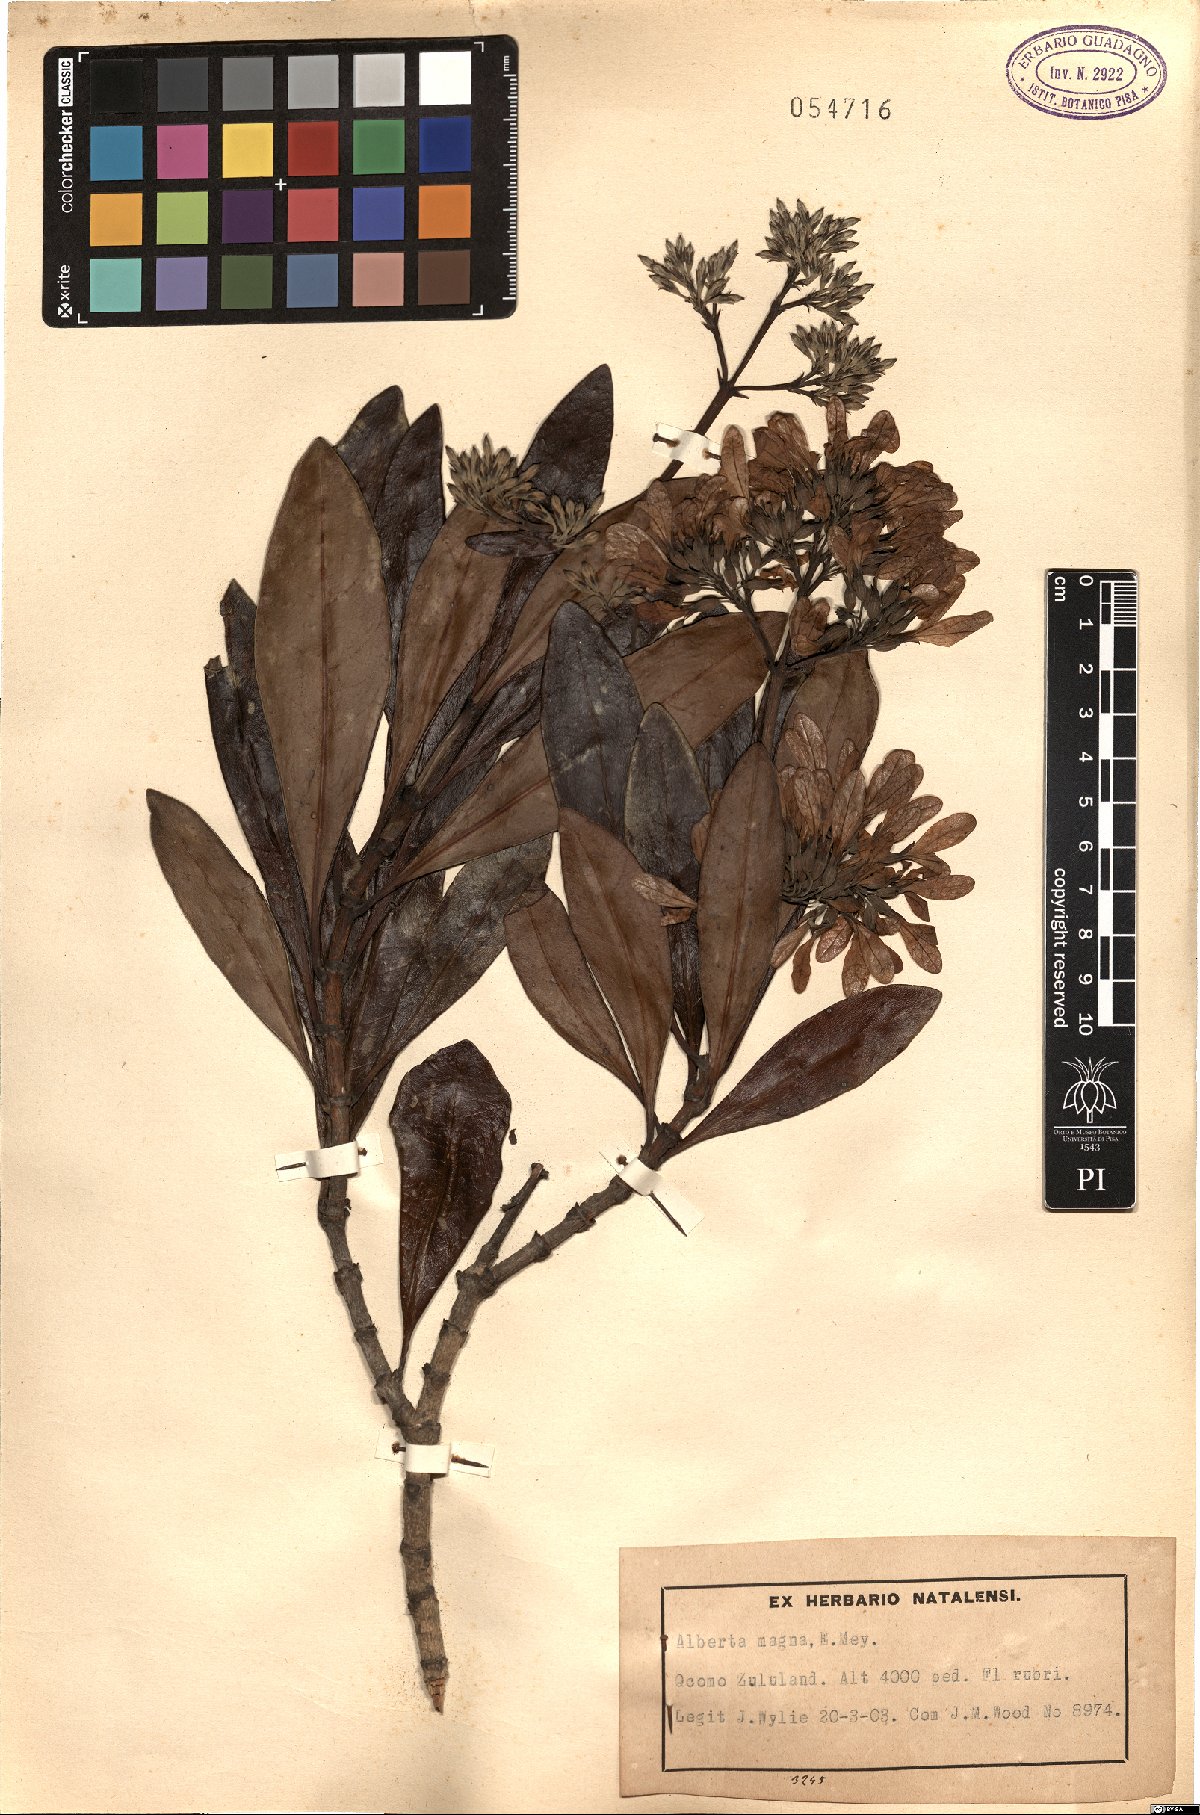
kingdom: Plantae
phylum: Tracheophyta
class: Magnoliopsida
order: Gentianales
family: Rubiaceae
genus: Alberta
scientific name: Alberta magna
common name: Magnificent-flame
